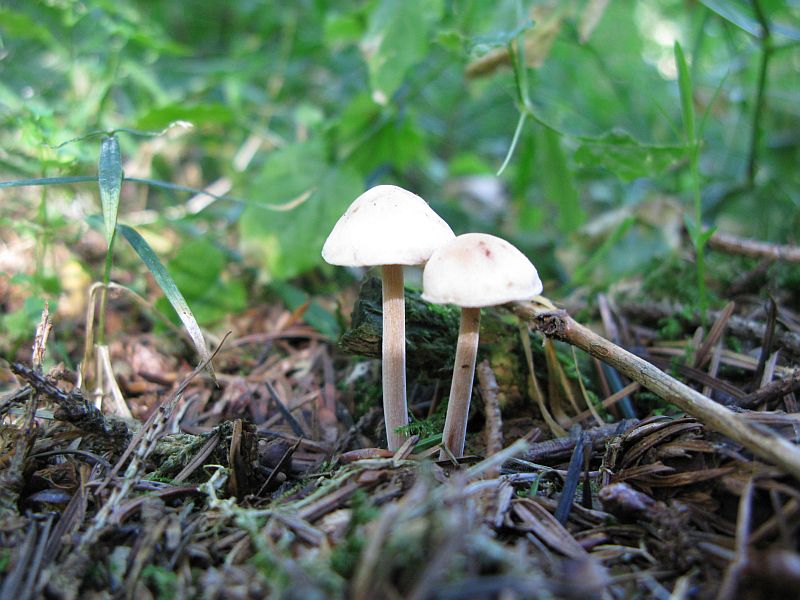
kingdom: Fungi
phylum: Basidiomycota
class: Agaricomycetes
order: Agaricales
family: Omphalotaceae
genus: Collybiopsis
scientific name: Collybiopsis confluens
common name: knippe-fladhat
